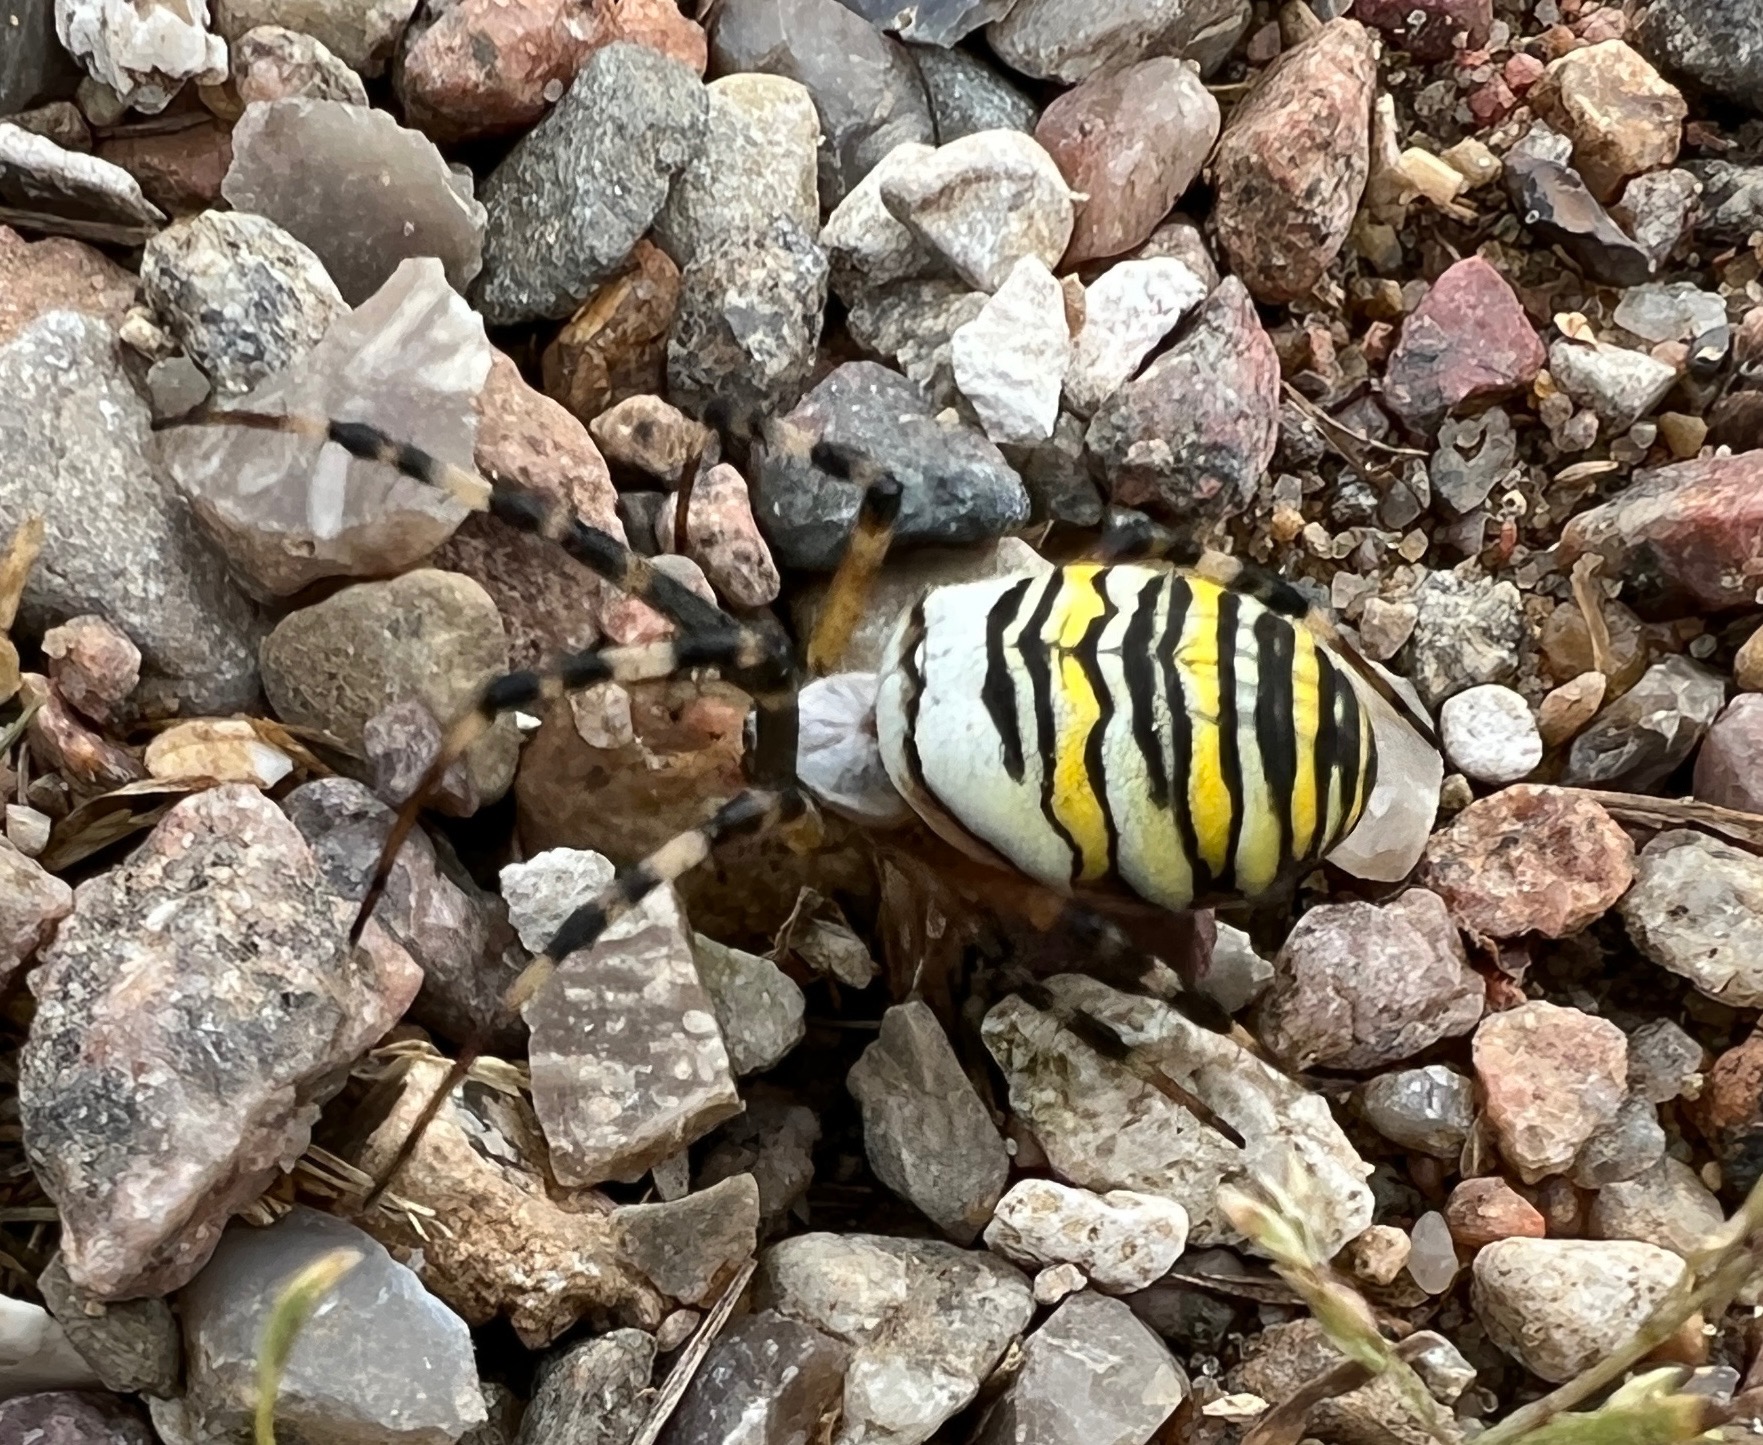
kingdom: Animalia
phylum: Arthropoda
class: Arachnida
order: Araneae
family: Araneidae
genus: Argiope
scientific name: Argiope bruennichi
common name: Hvepseedderkop
